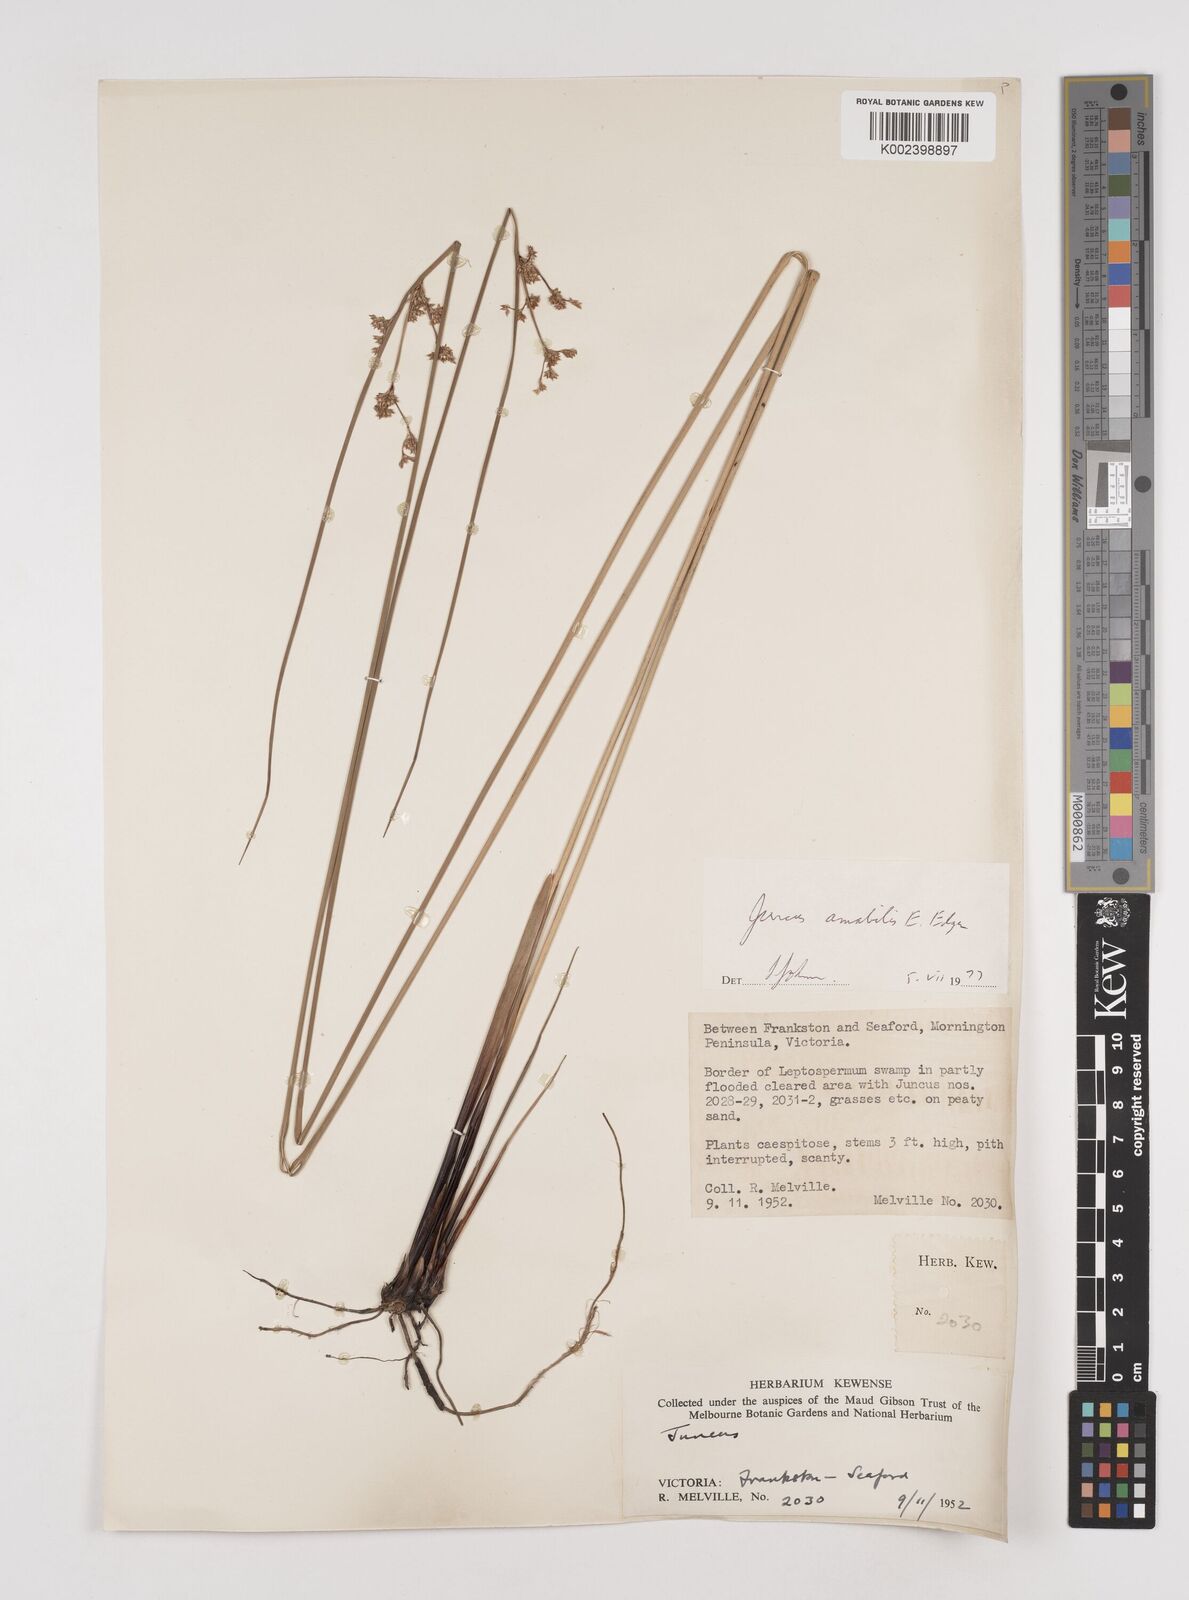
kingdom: Plantae
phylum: Tracheophyta
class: Liliopsida
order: Poales
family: Juncaceae
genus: Juncus
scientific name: Juncus amabilis
